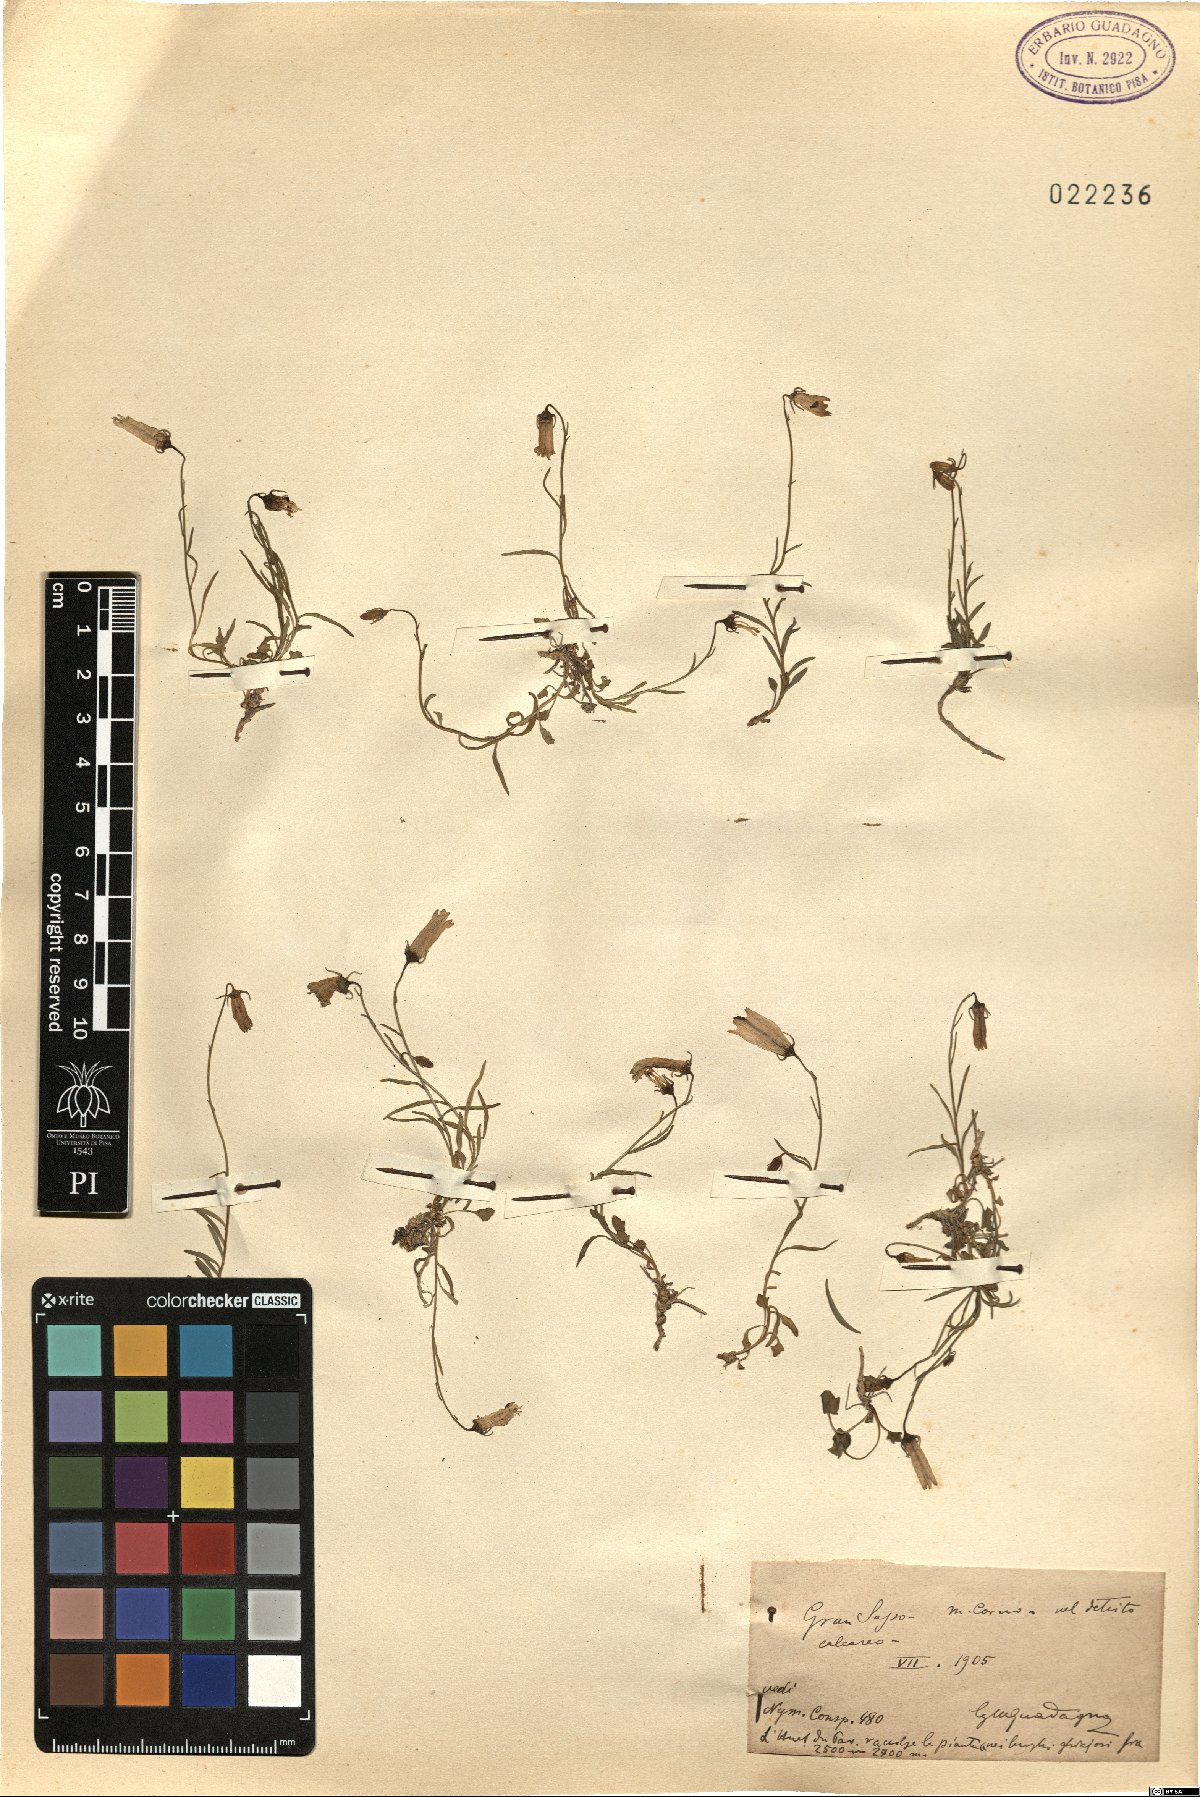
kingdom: Plantae
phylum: Tracheophyta
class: Magnoliopsida
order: Asterales
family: Campanulaceae
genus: Campanula
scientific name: Campanula
